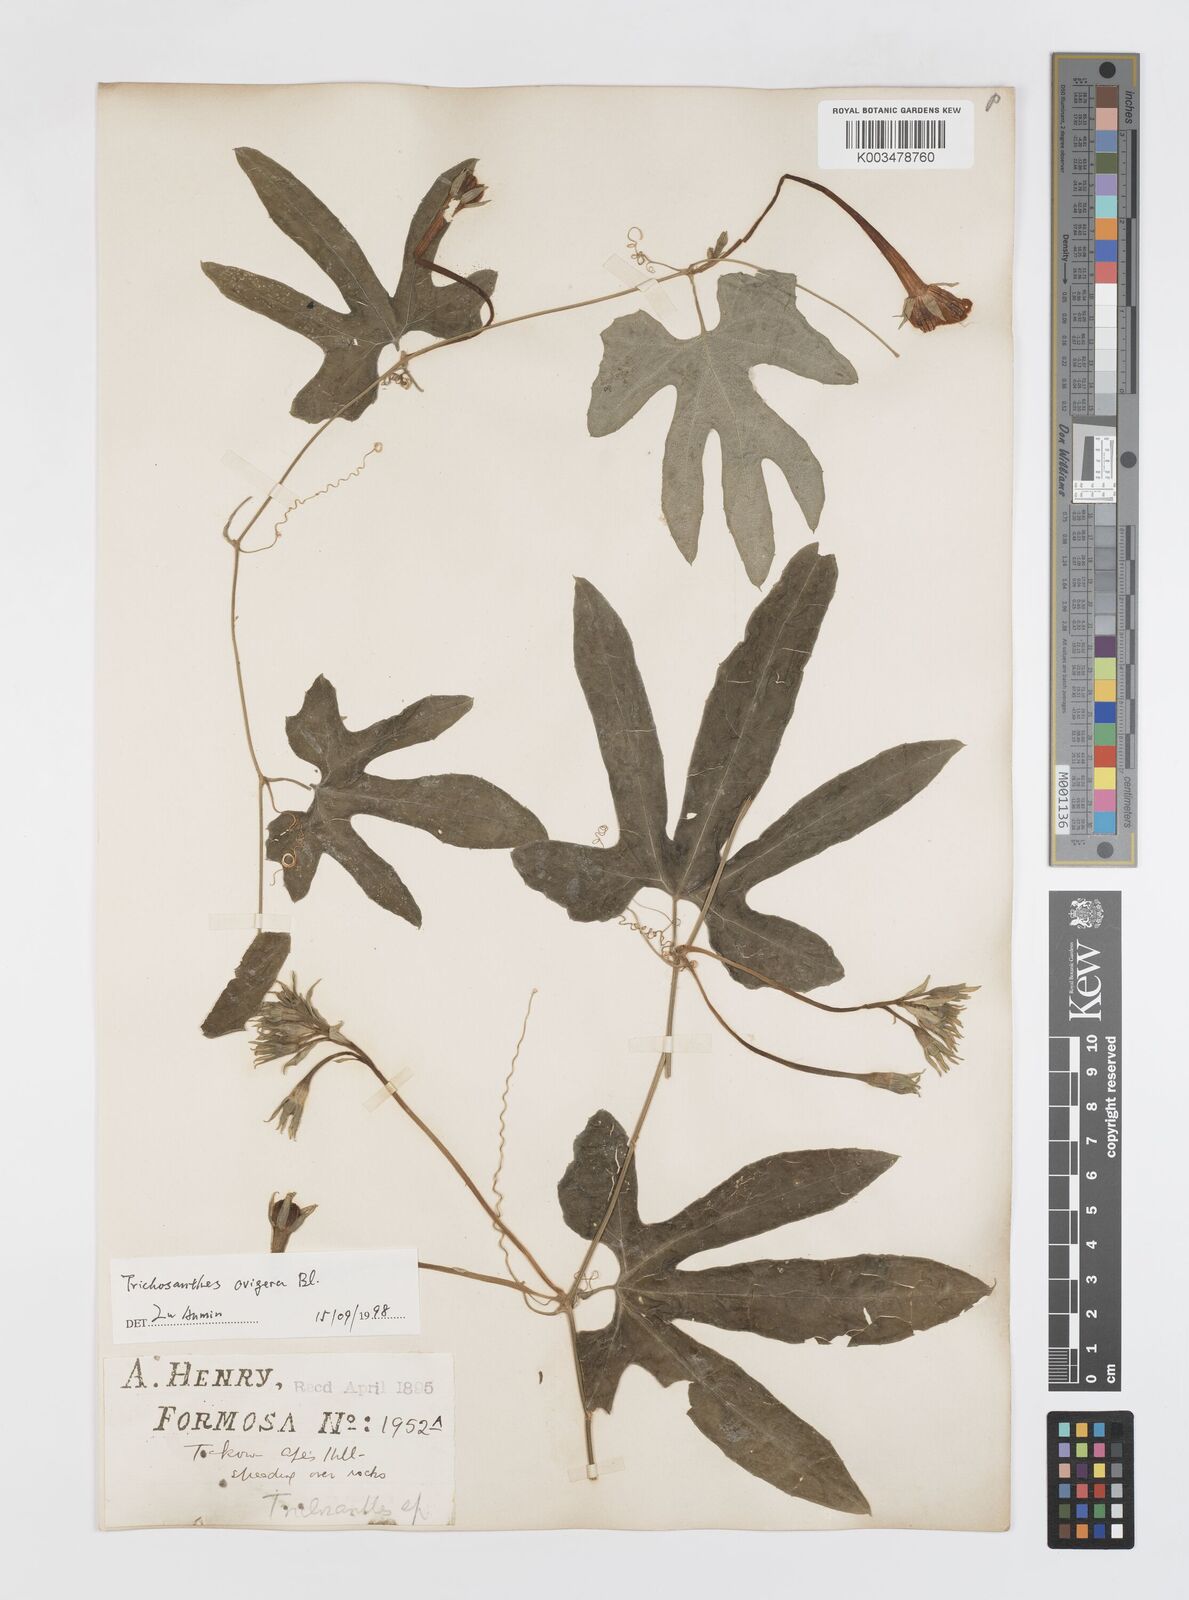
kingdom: Plantae
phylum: Tracheophyta
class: Magnoliopsida
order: Cucurbitales
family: Cucurbitaceae
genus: Trichosanthes
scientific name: Trichosanthes ovigera
